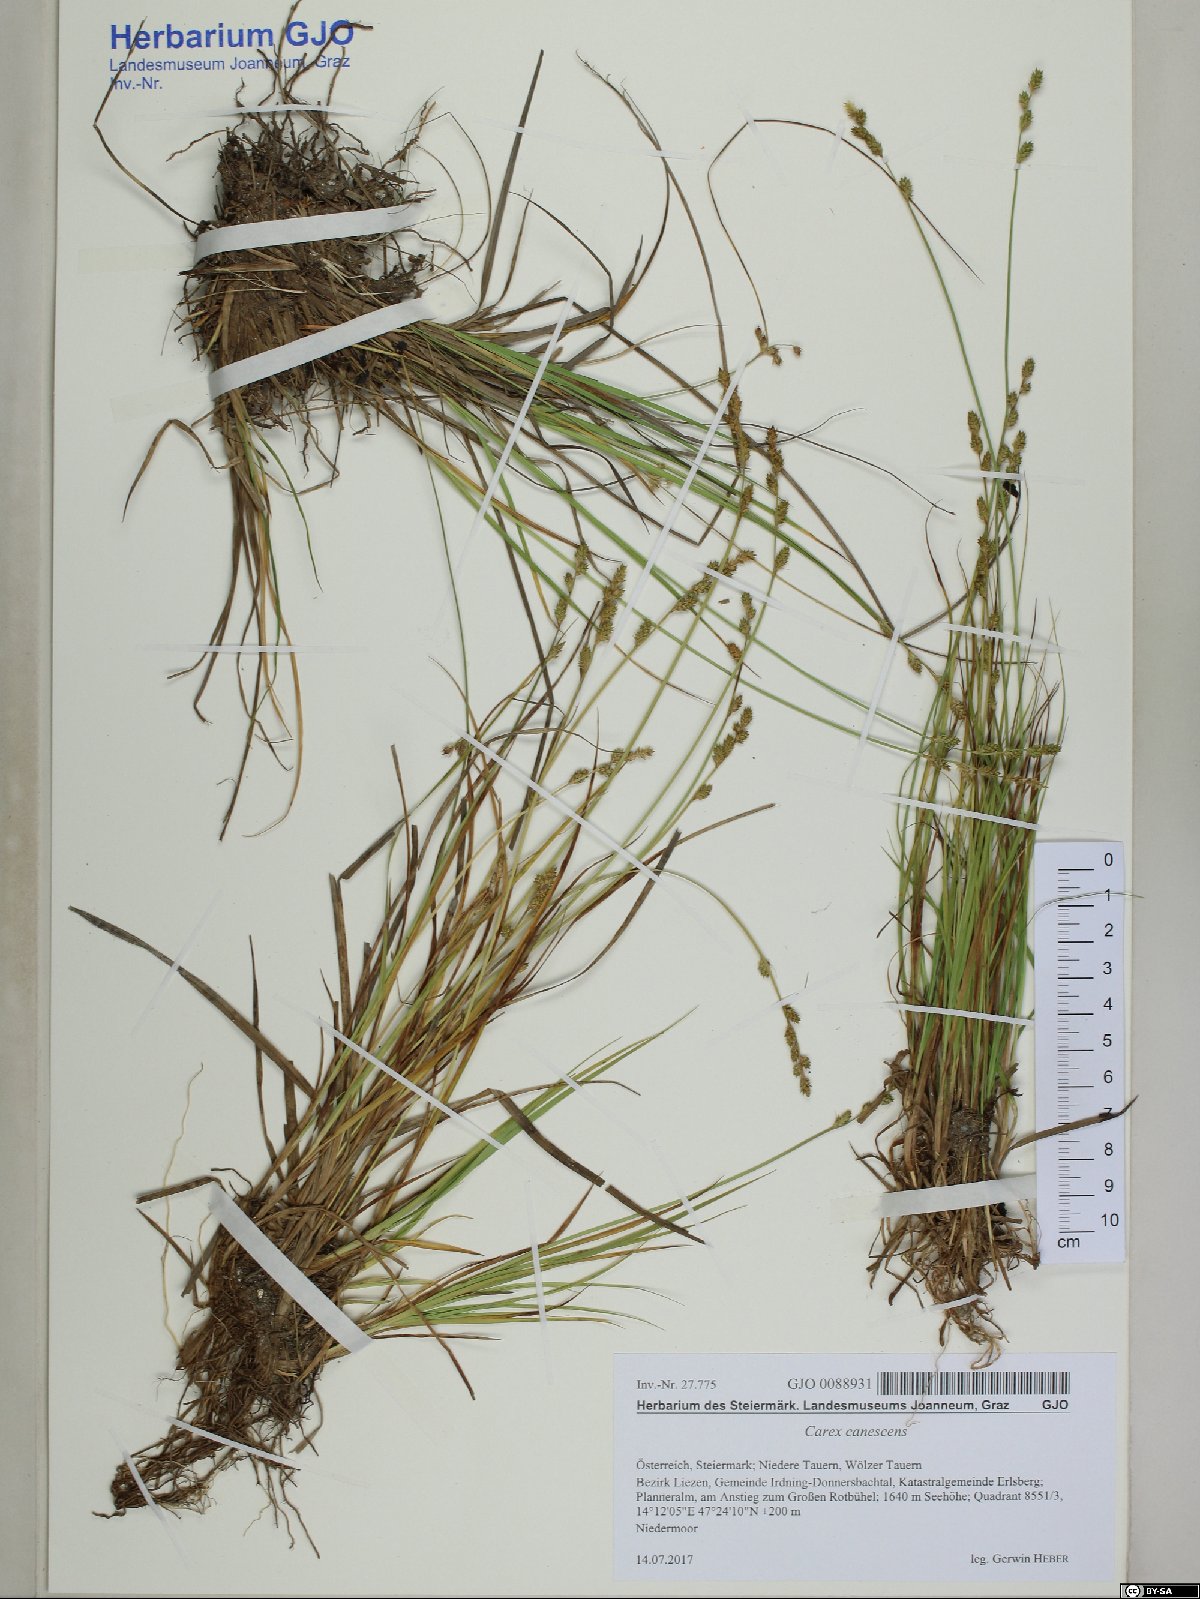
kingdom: Plantae
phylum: Tracheophyta
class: Liliopsida
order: Poales
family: Cyperaceae
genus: Carex
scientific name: Carex canescens
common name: White sedge
